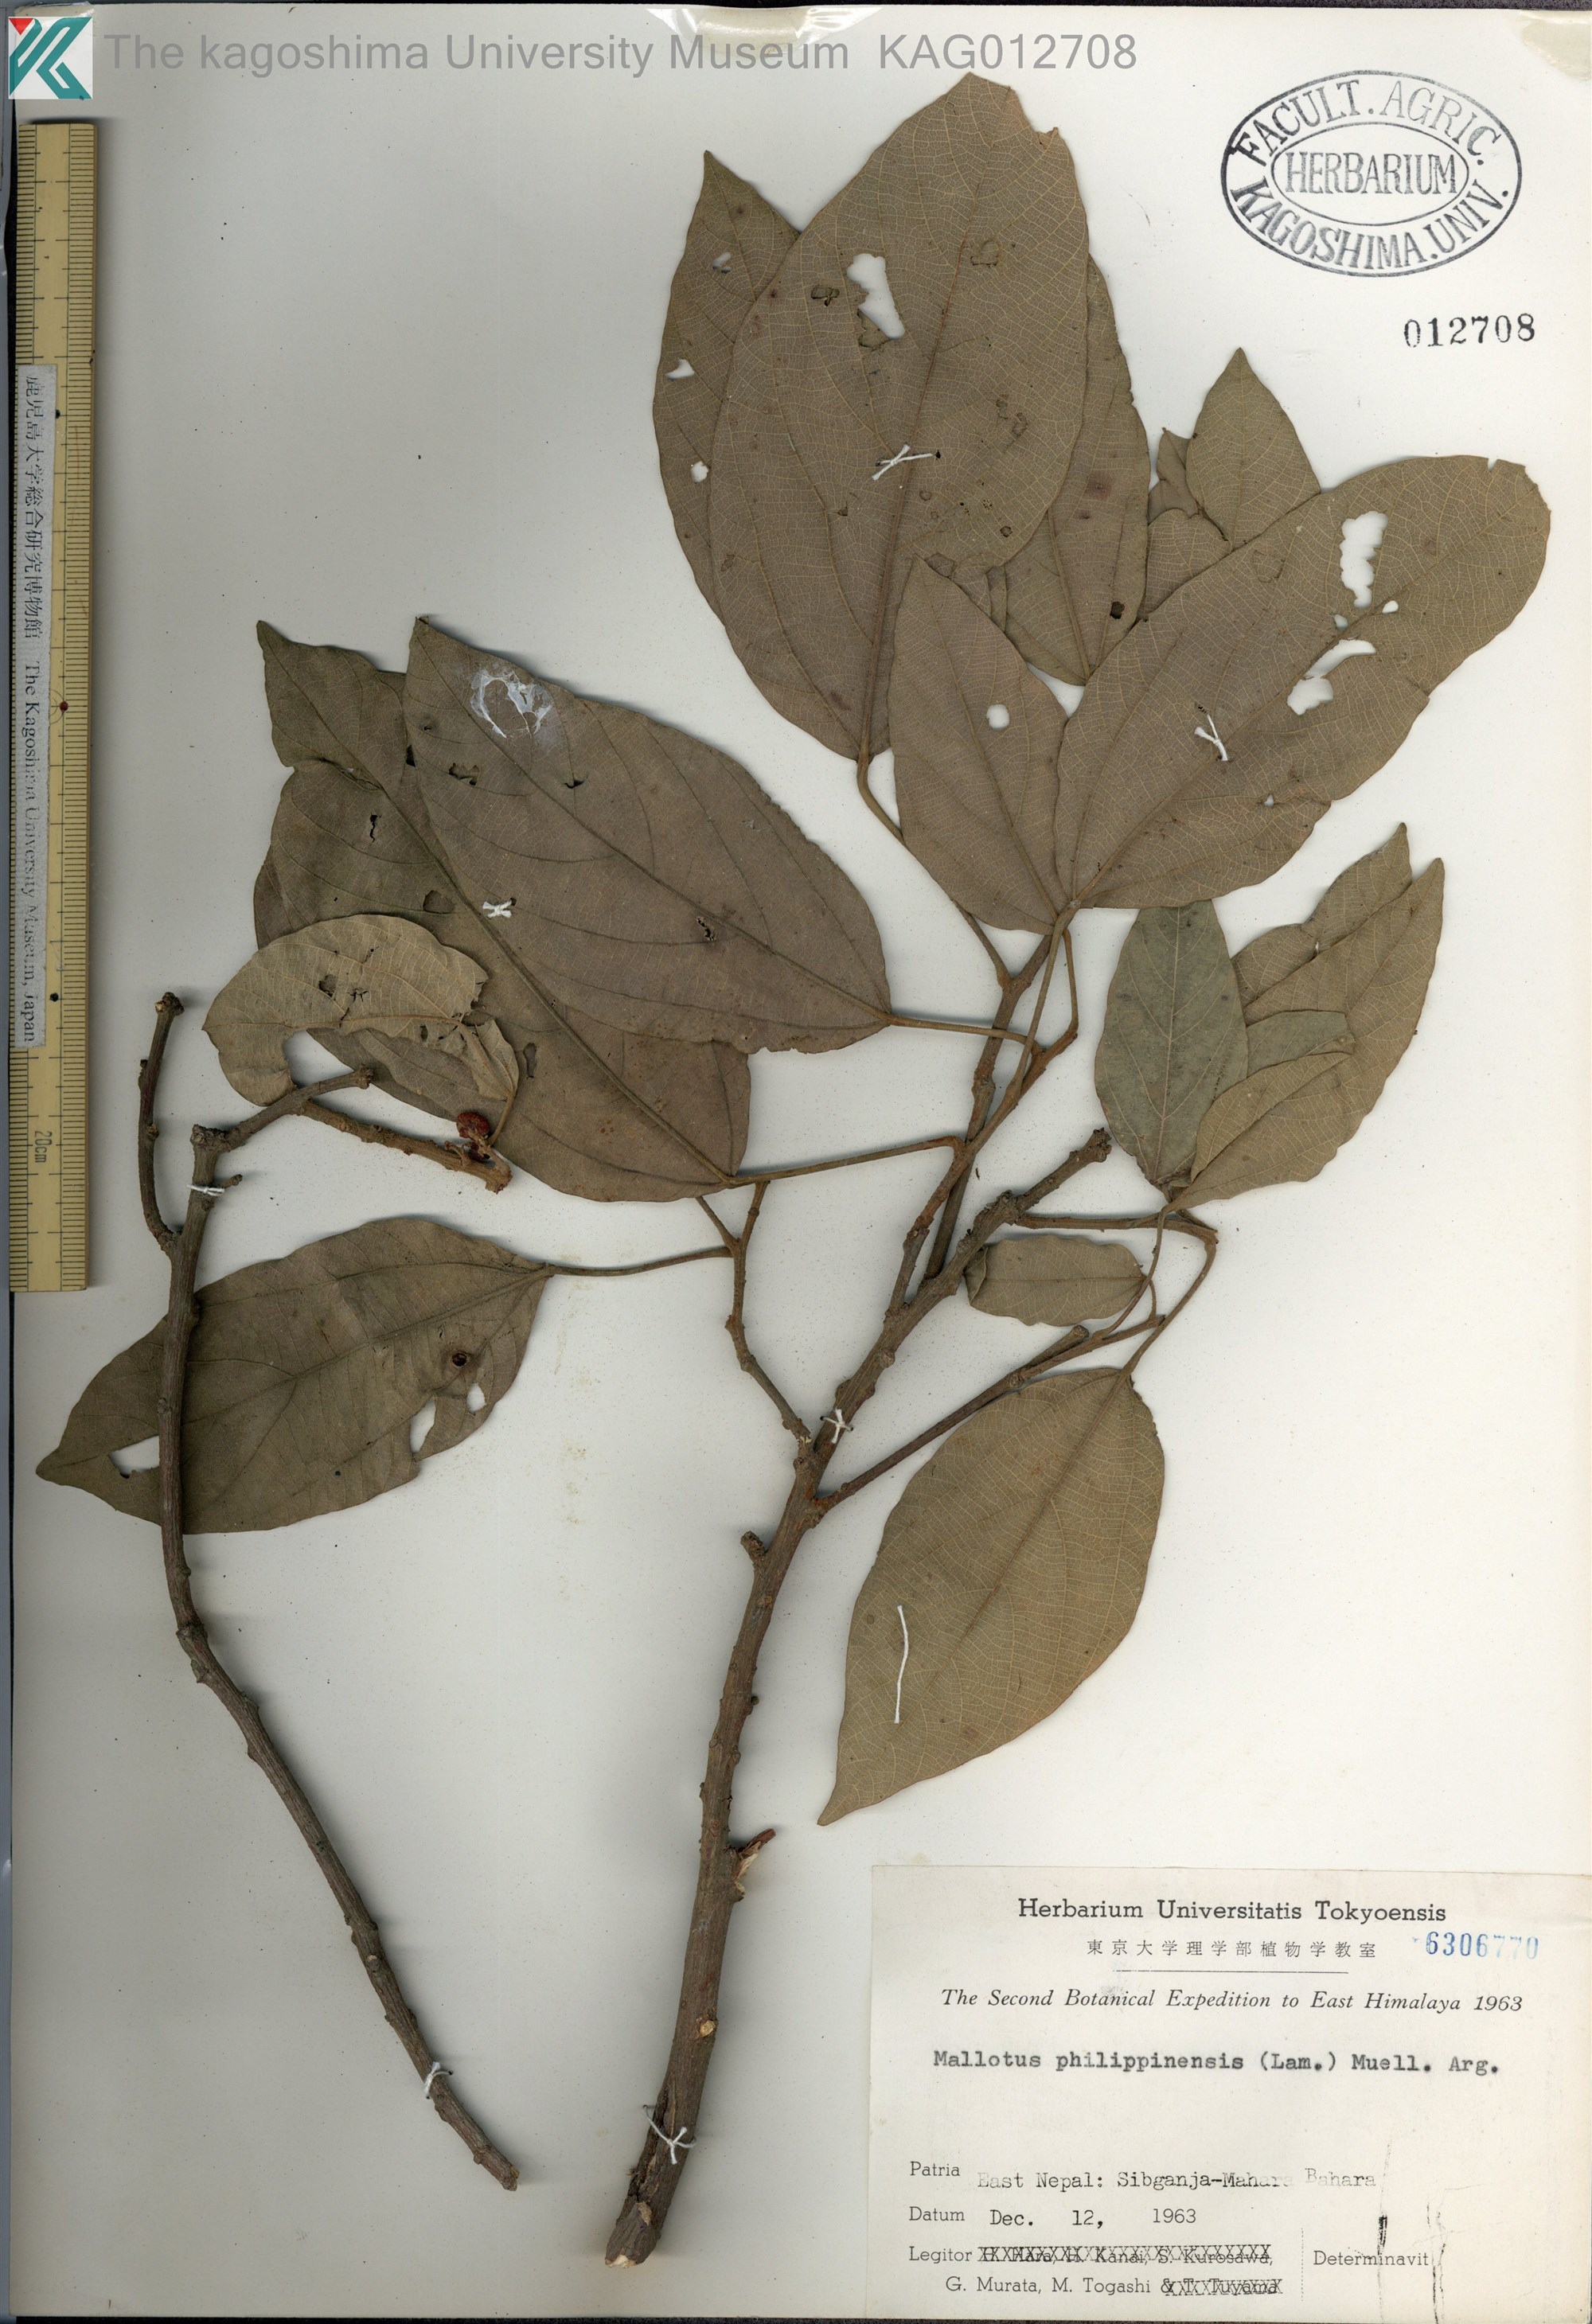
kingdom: Plantae
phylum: Tracheophyta
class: Magnoliopsida
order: Malpighiales
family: Euphorbiaceae
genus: Mallotus
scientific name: Mallotus philippensis
